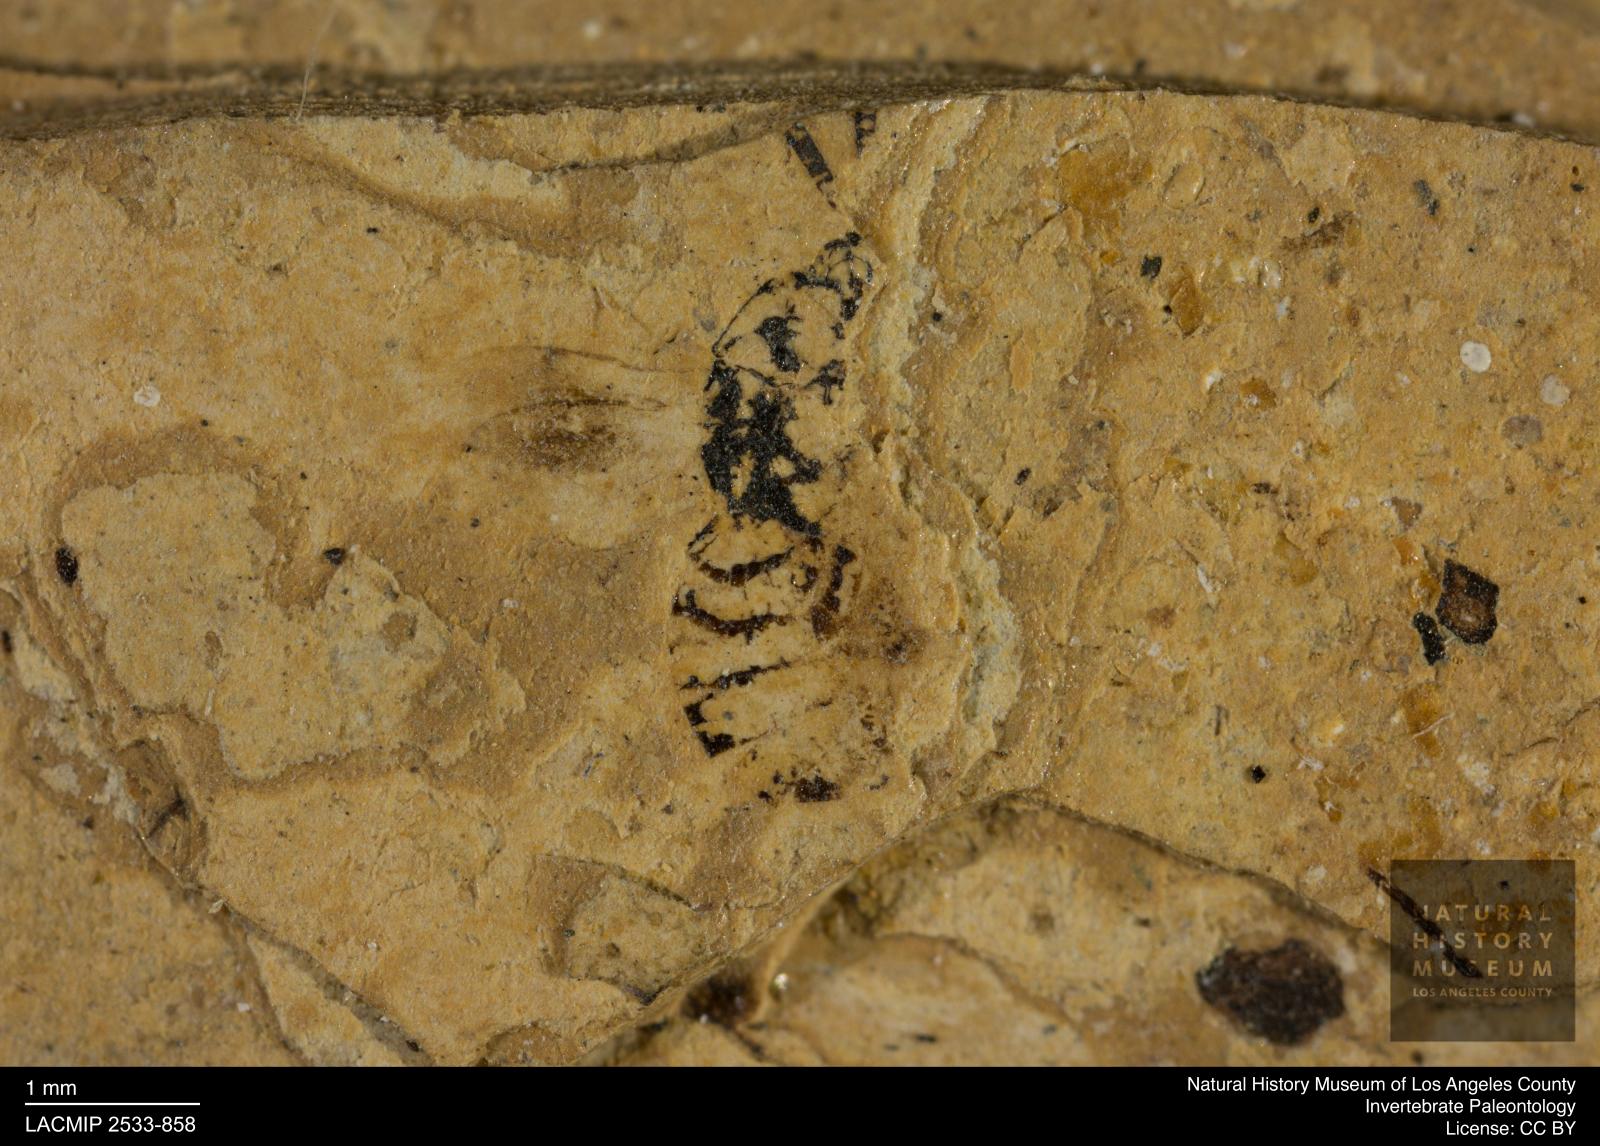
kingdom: Animalia
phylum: Arthropoda
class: Insecta
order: Hymenoptera
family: Pteromalidae
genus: Pteromalus
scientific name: Pteromalus rottensis
